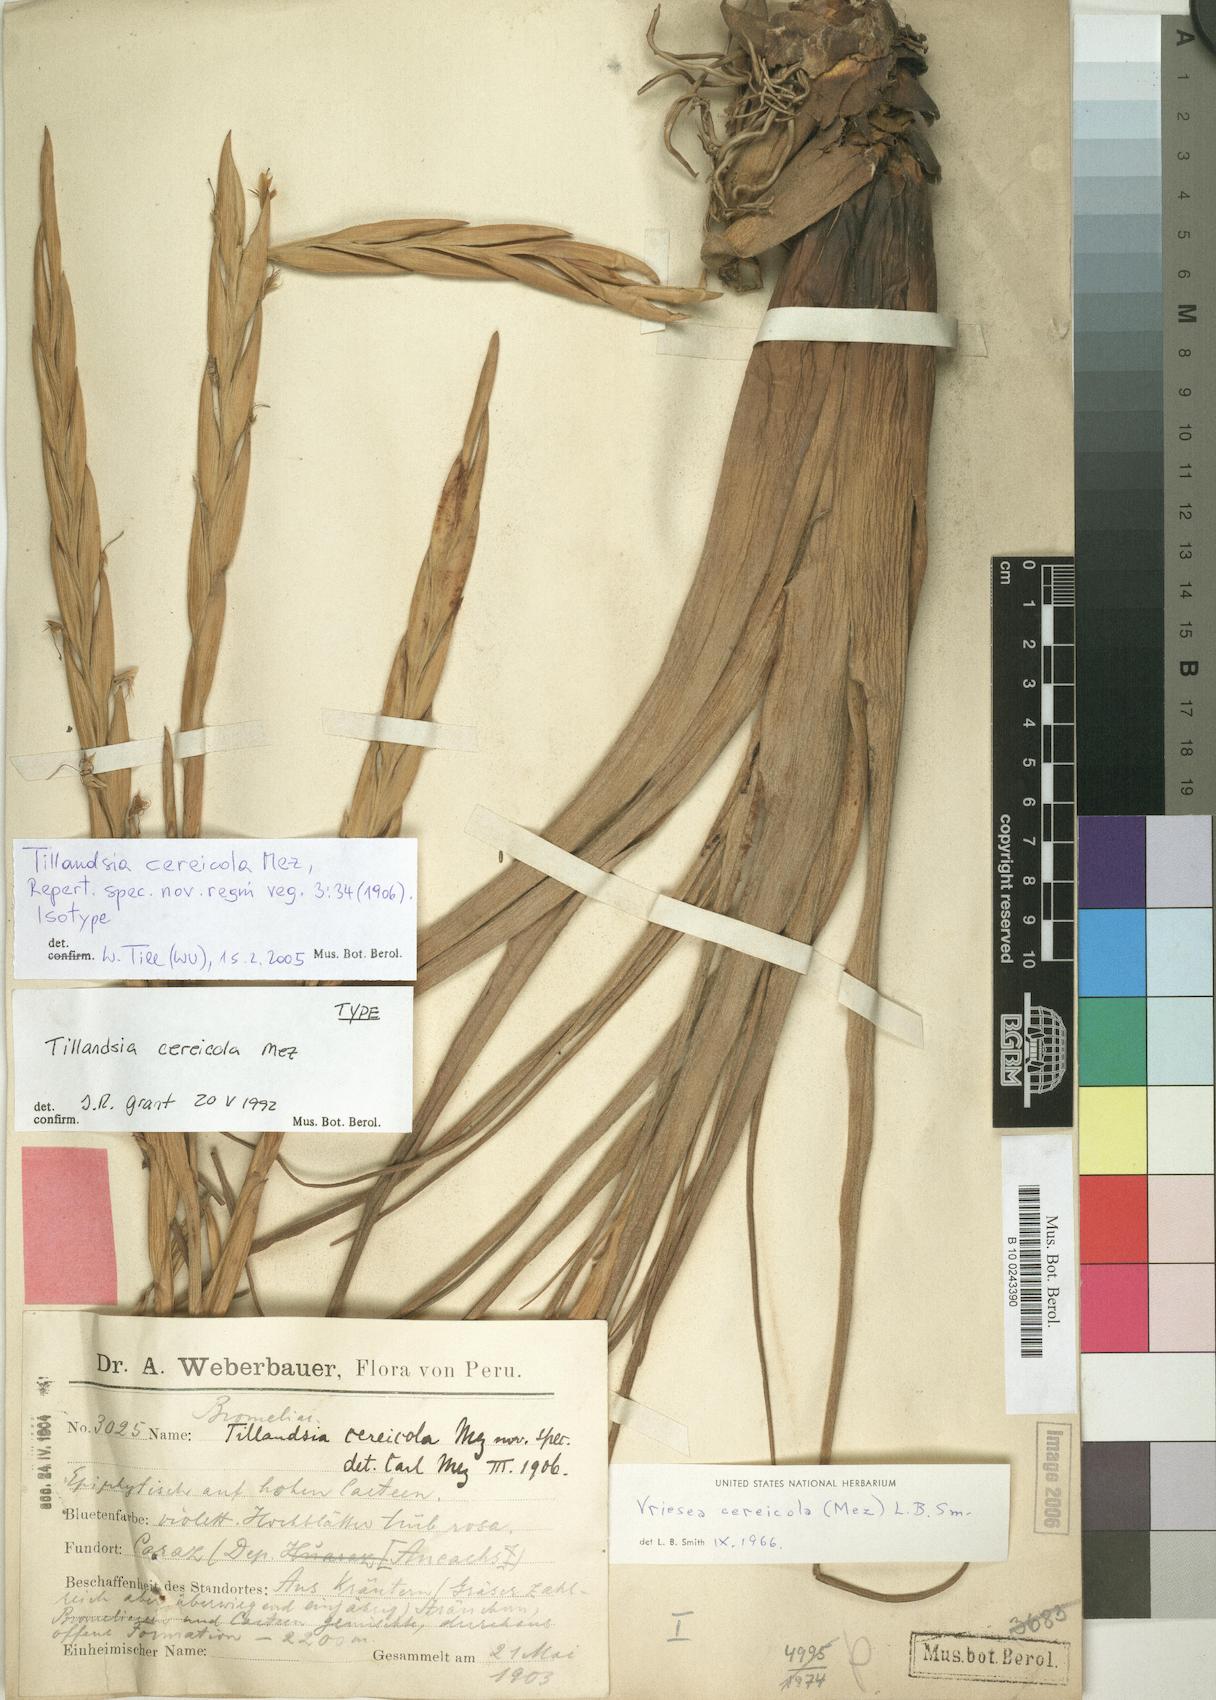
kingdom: Plantae
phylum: Tracheophyta
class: Liliopsida
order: Poales
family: Bromeliaceae
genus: Vriesea
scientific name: Vriesea cereicola
